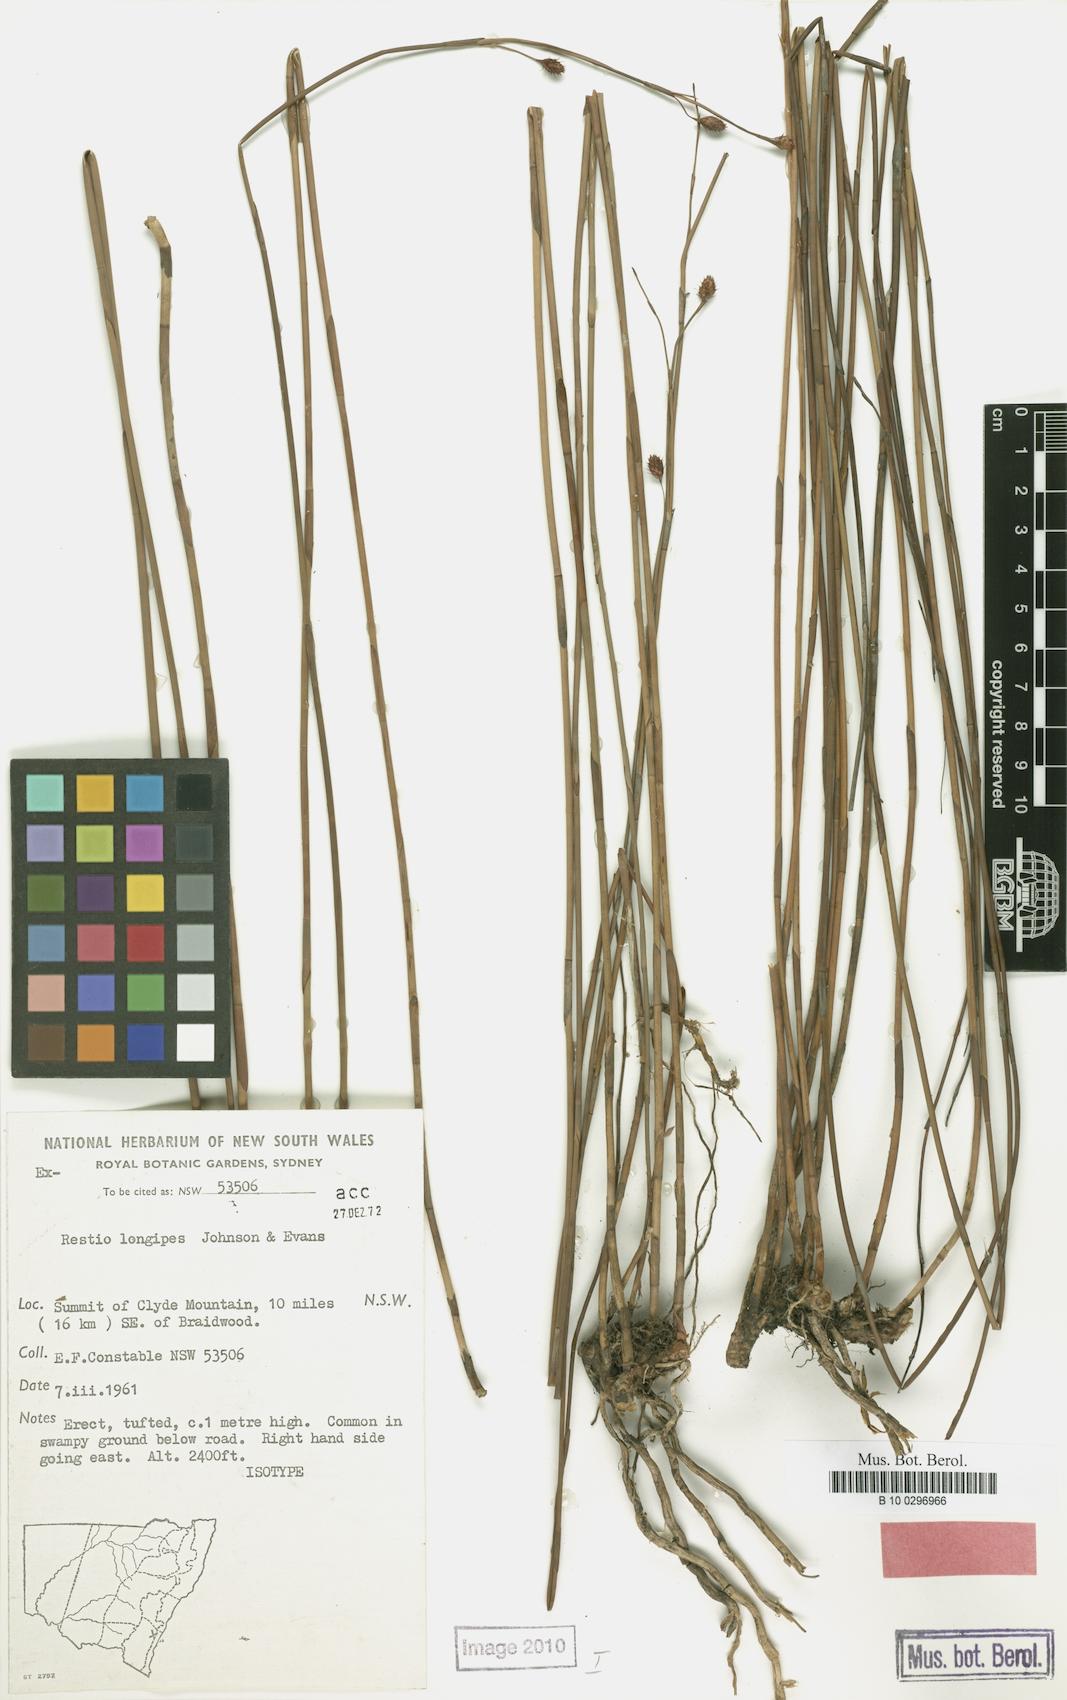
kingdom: Plantae
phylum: Tracheophyta
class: Liliopsida
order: Poales
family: Restionaceae
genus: Baloskion
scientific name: Baloskion longipes
